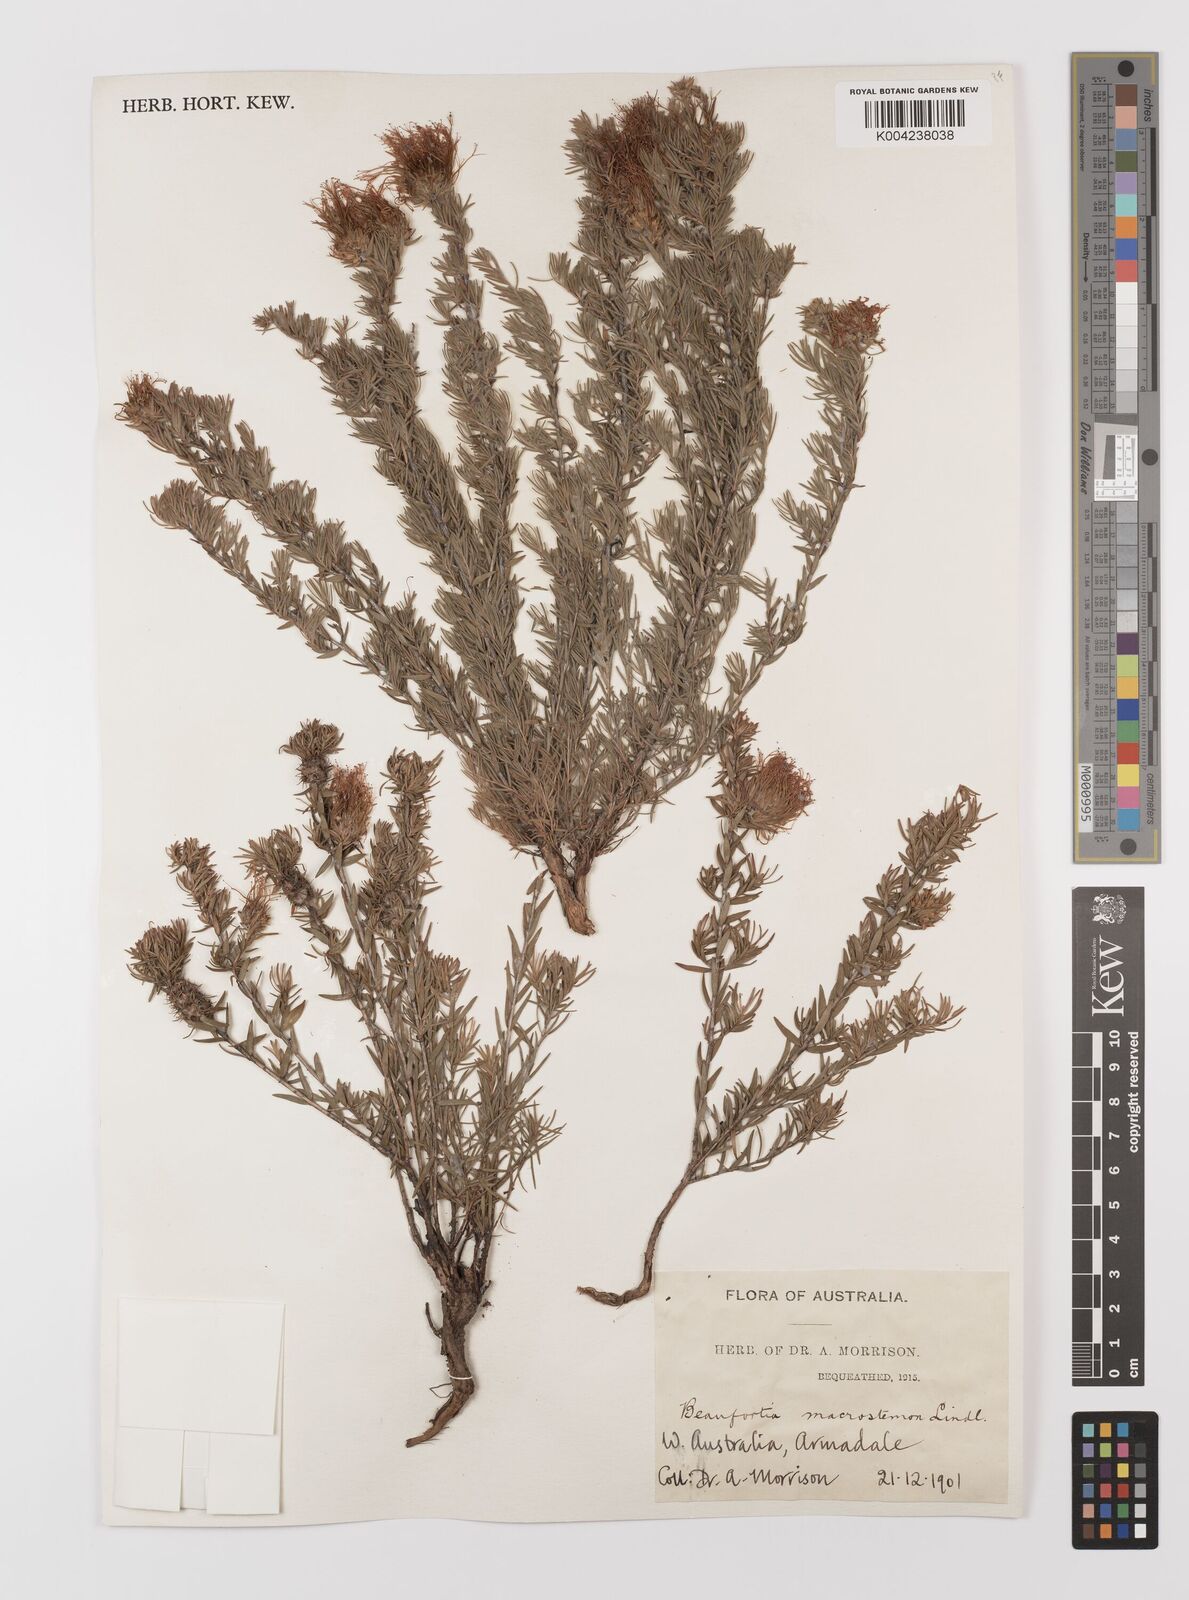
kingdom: Plantae
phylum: Tracheophyta
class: Magnoliopsida
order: Myrtales
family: Myrtaceae
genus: Melaleuca
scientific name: Melaleuca macrostemon
